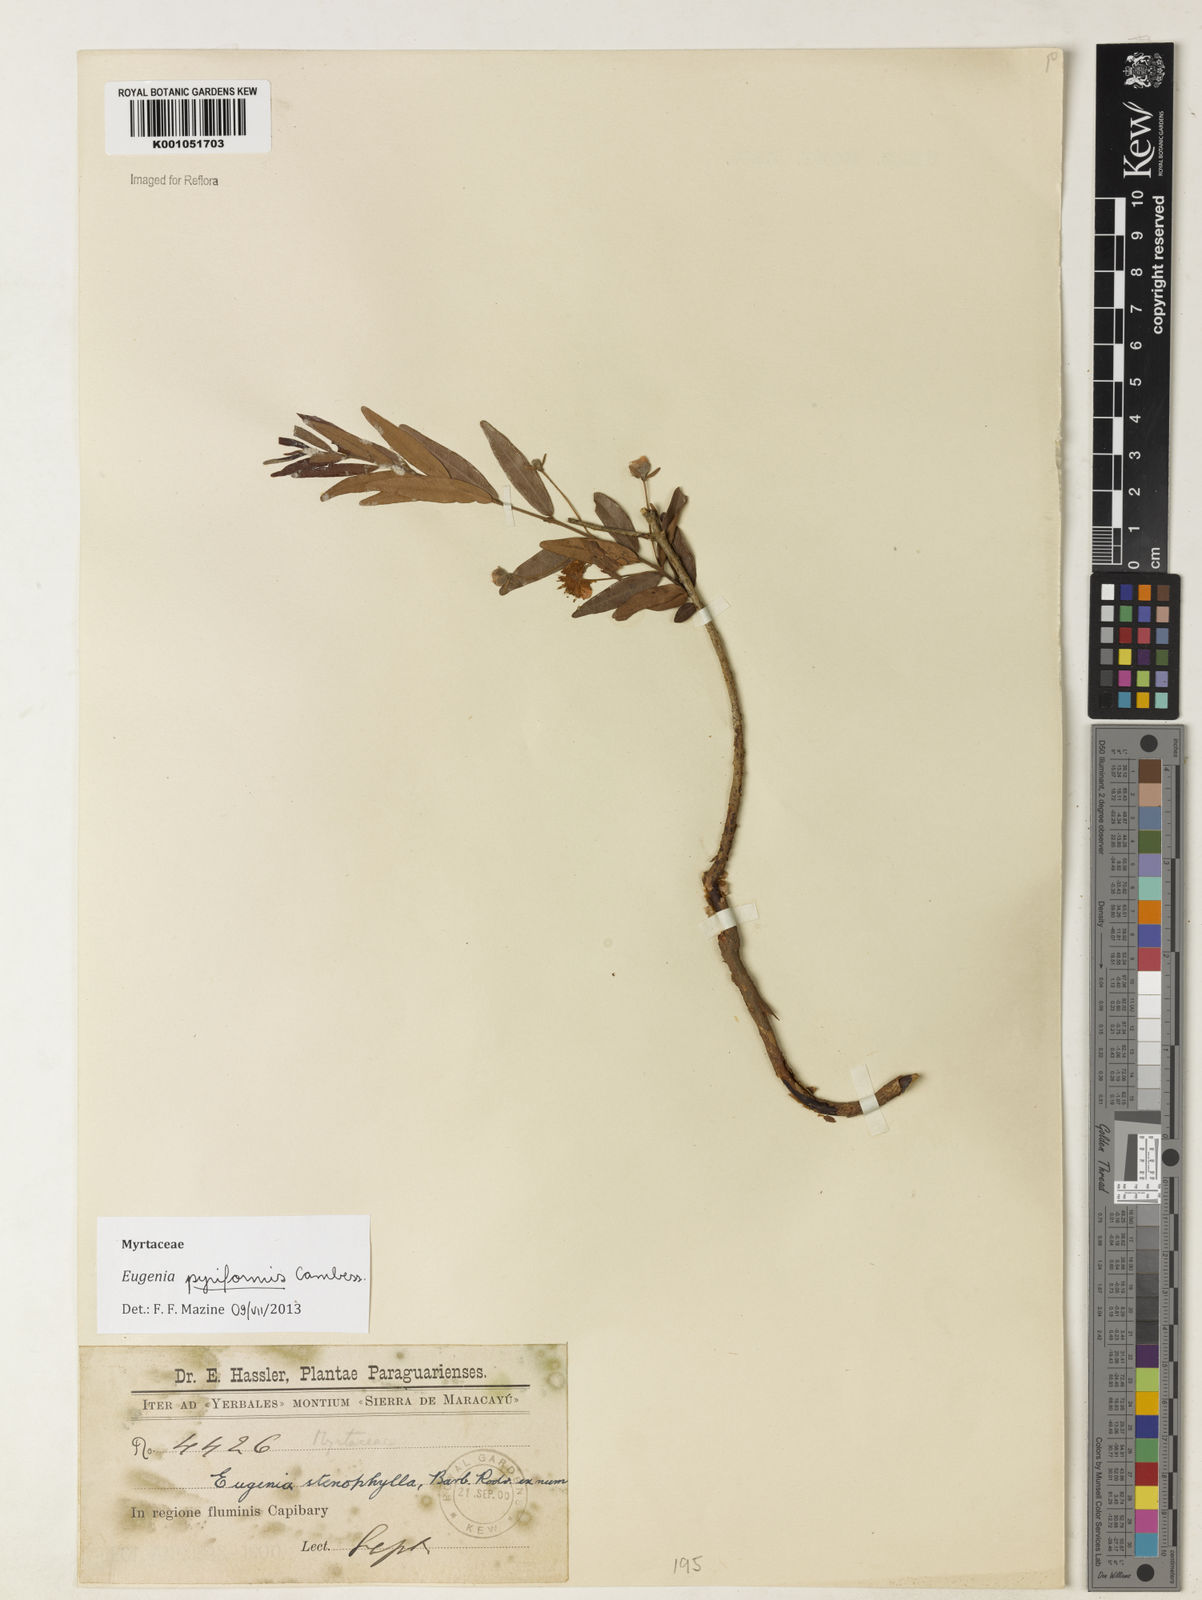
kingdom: Plantae
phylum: Tracheophyta
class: Magnoliopsida
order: Myrtales
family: Myrtaceae
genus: Eugenia
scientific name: Eugenia pyriformis
